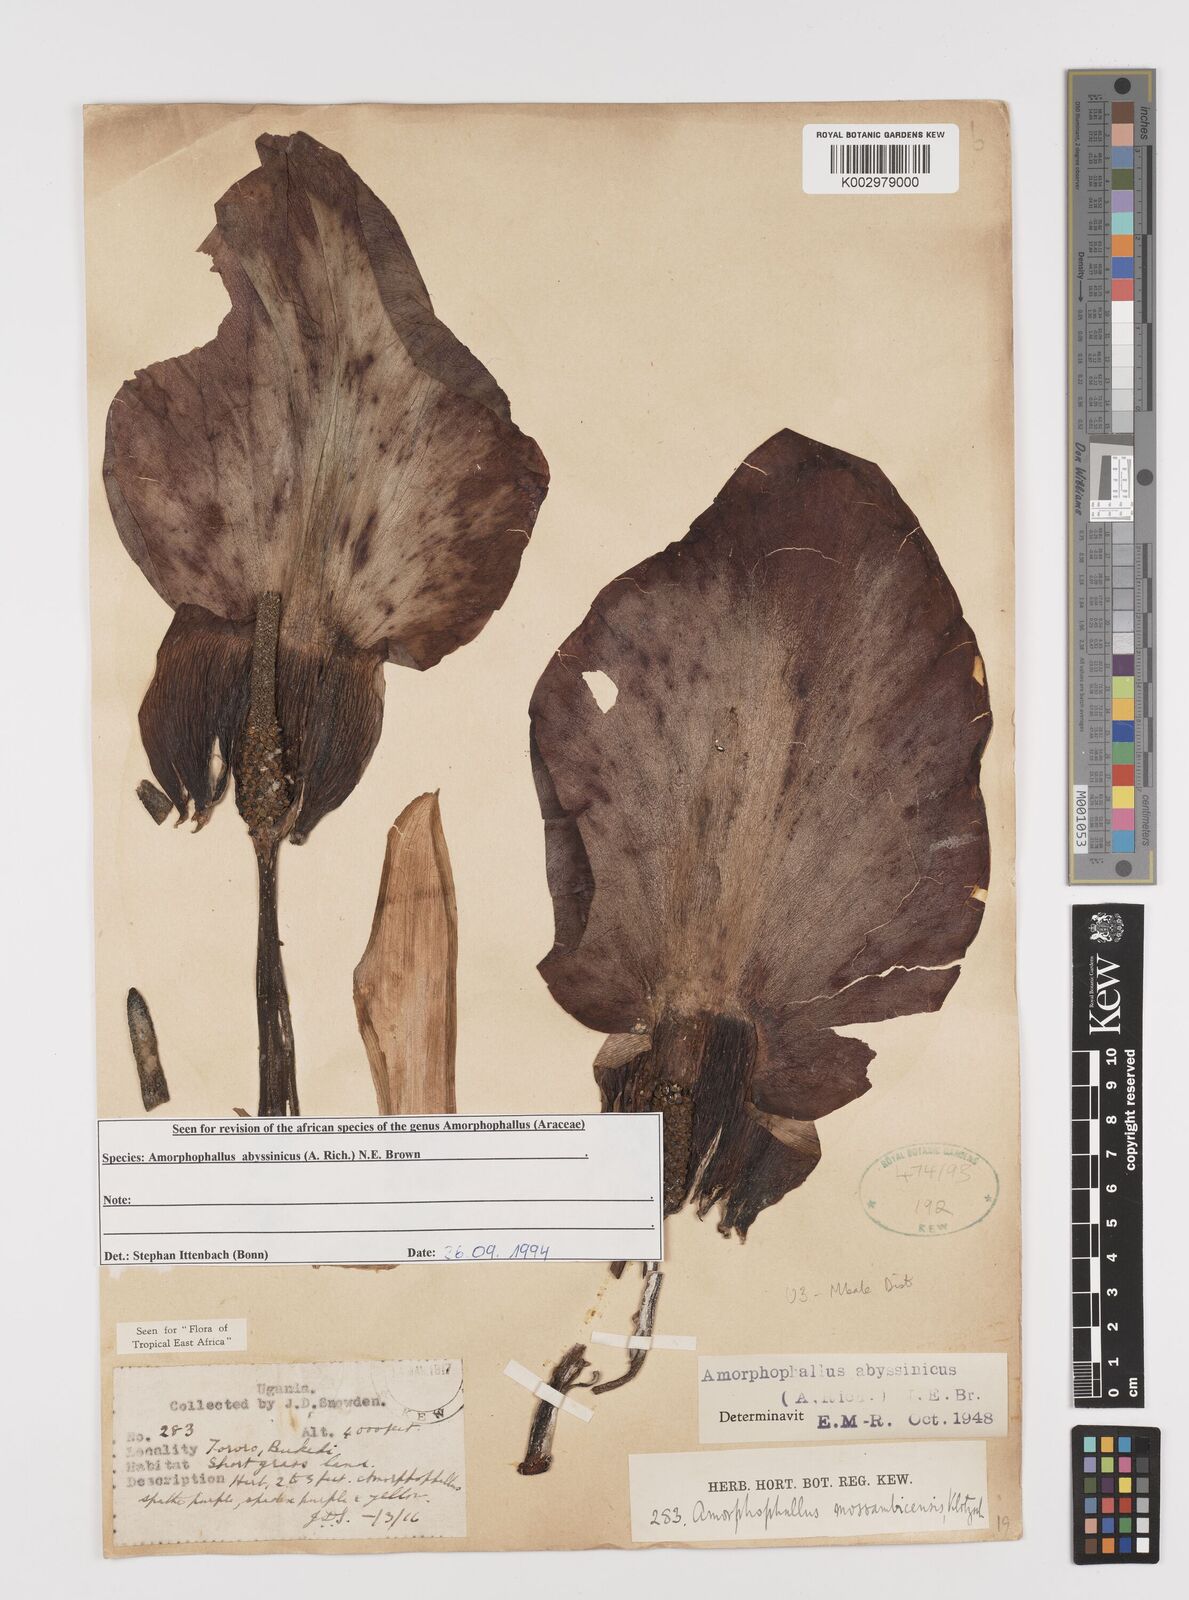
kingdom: Plantae
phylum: Tracheophyta
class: Liliopsida
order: Alismatales
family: Araceae
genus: Amorphophallus
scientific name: Amorphophallus abyssinicus
